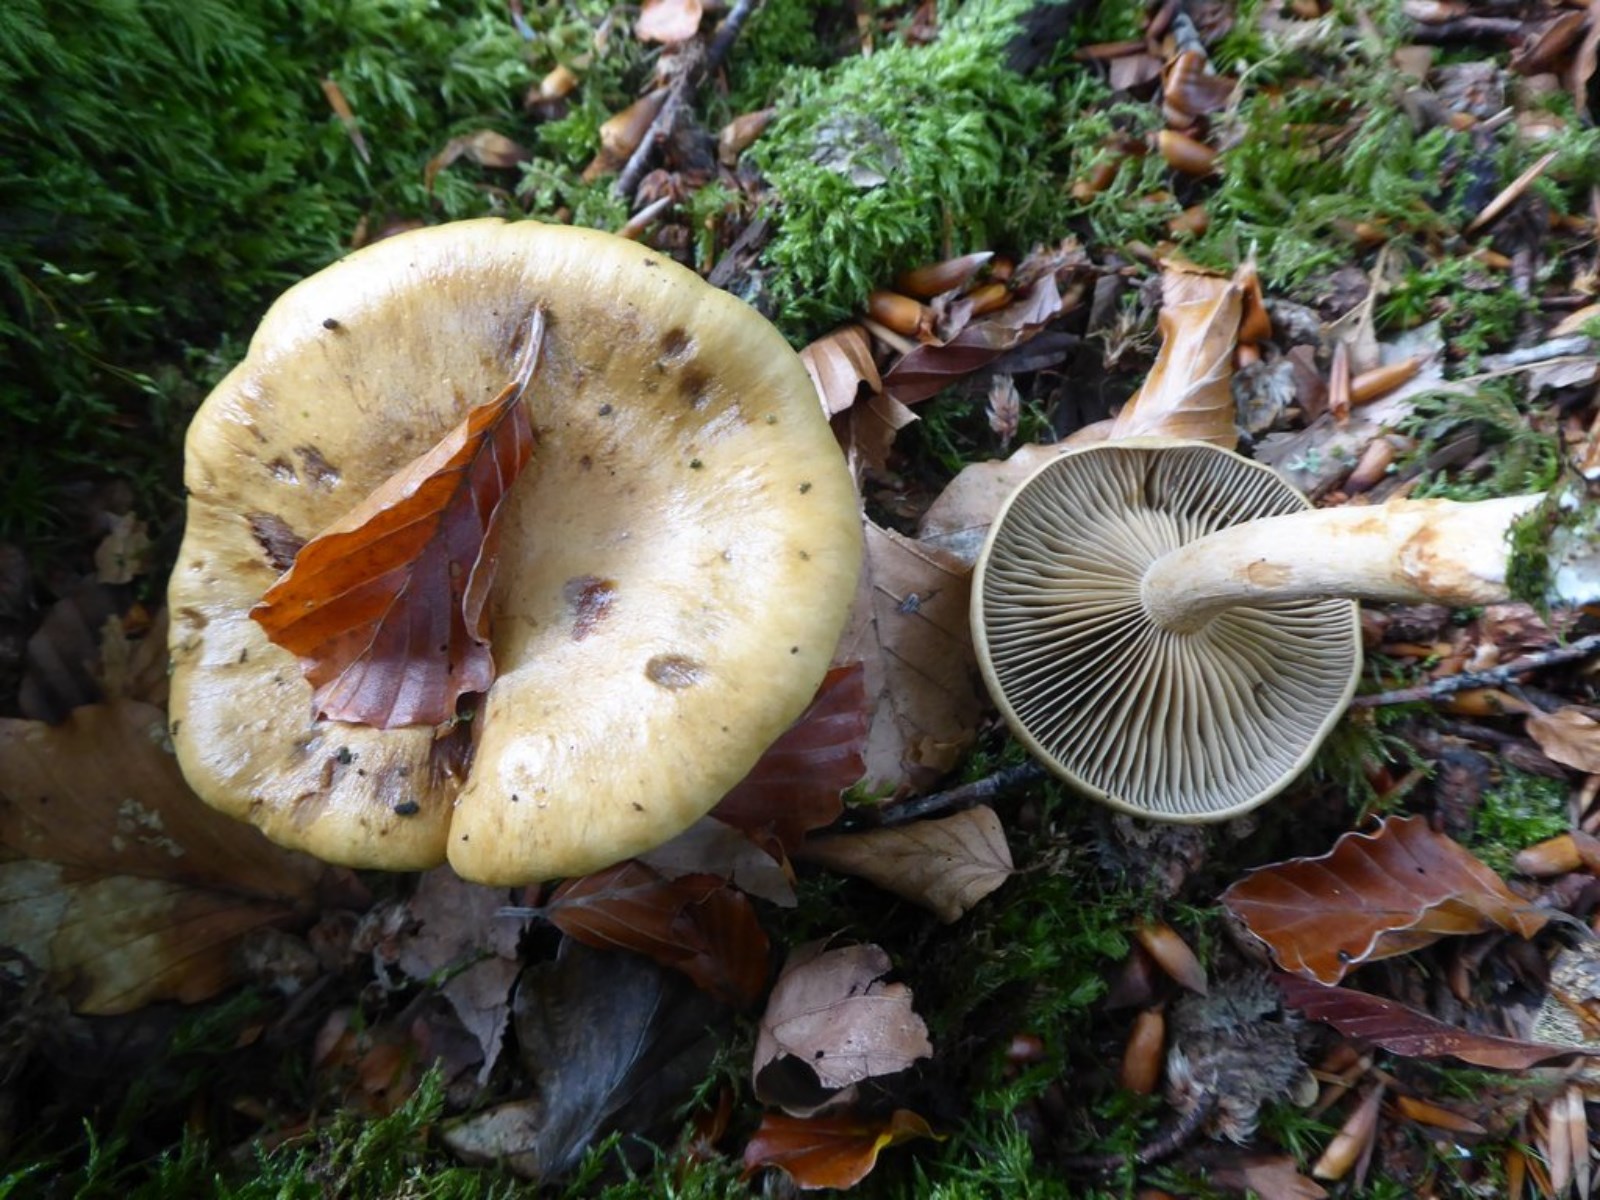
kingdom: Fungi
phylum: Basidiomycota
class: Agaricomycetes
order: Agaricales
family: Cortinariaceae
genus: Cortinarius
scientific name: Cortinarius subtortus
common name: olivengul slørhat
